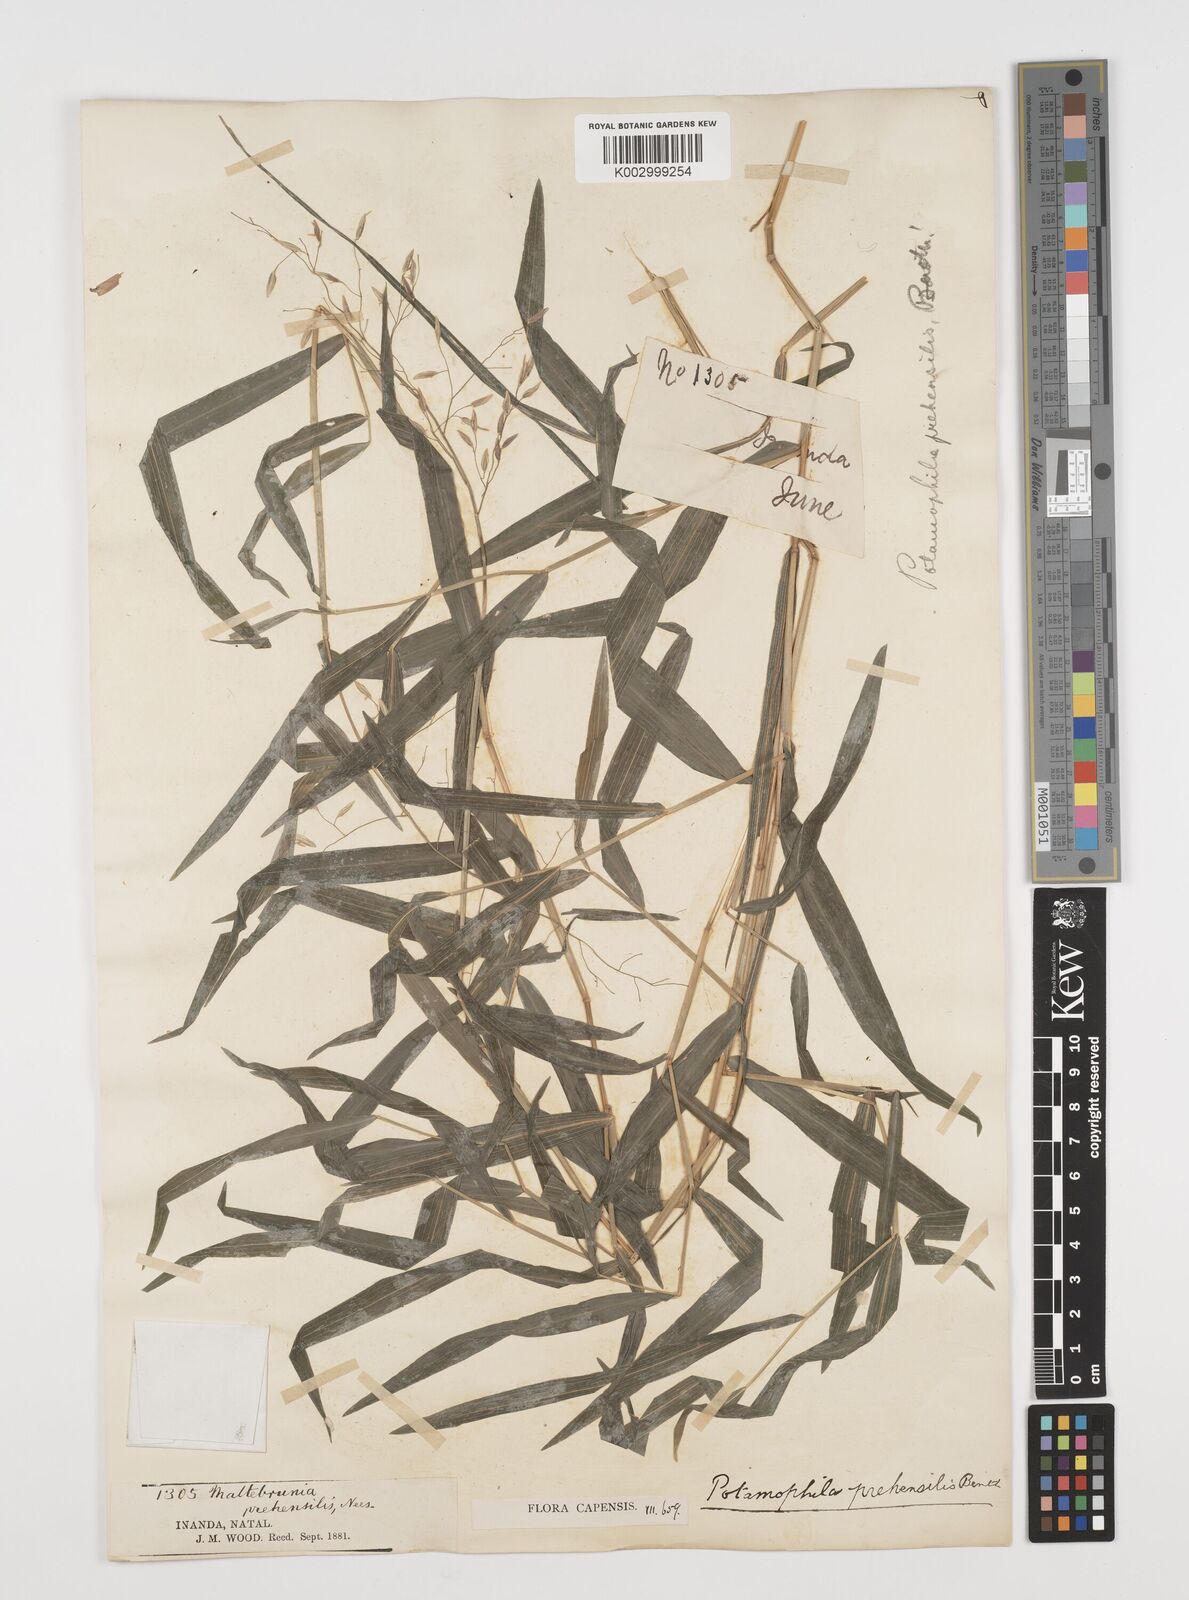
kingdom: Plantae
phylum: Tracheophyta
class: Liliopsida
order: Poales
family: Poaceae
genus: Prosphytochloa
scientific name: Prosphytochloa prehensilis
